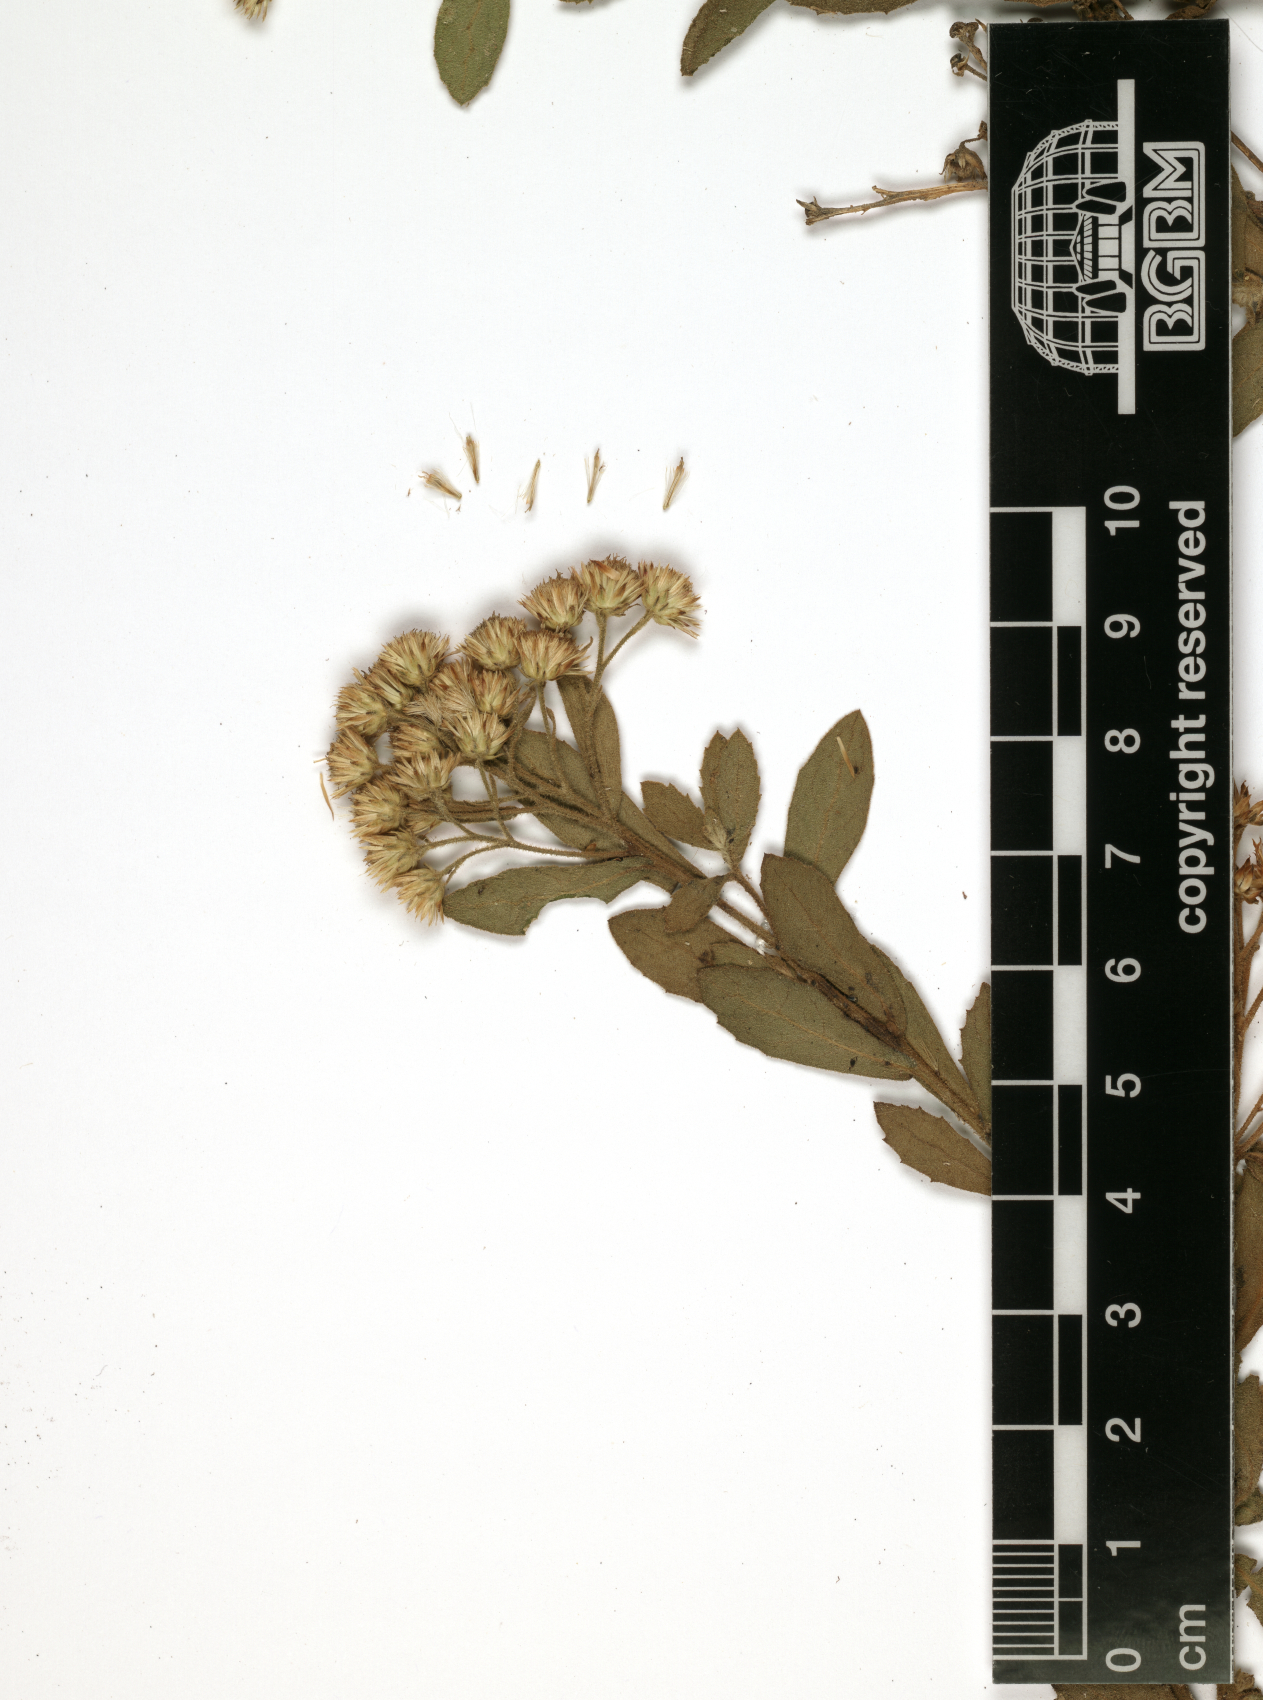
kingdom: Plantae
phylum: Tracheophyta
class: Magnoliopsida
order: Asterales
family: Asteraceae
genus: Pluchea
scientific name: Pluchea dioscoridis
